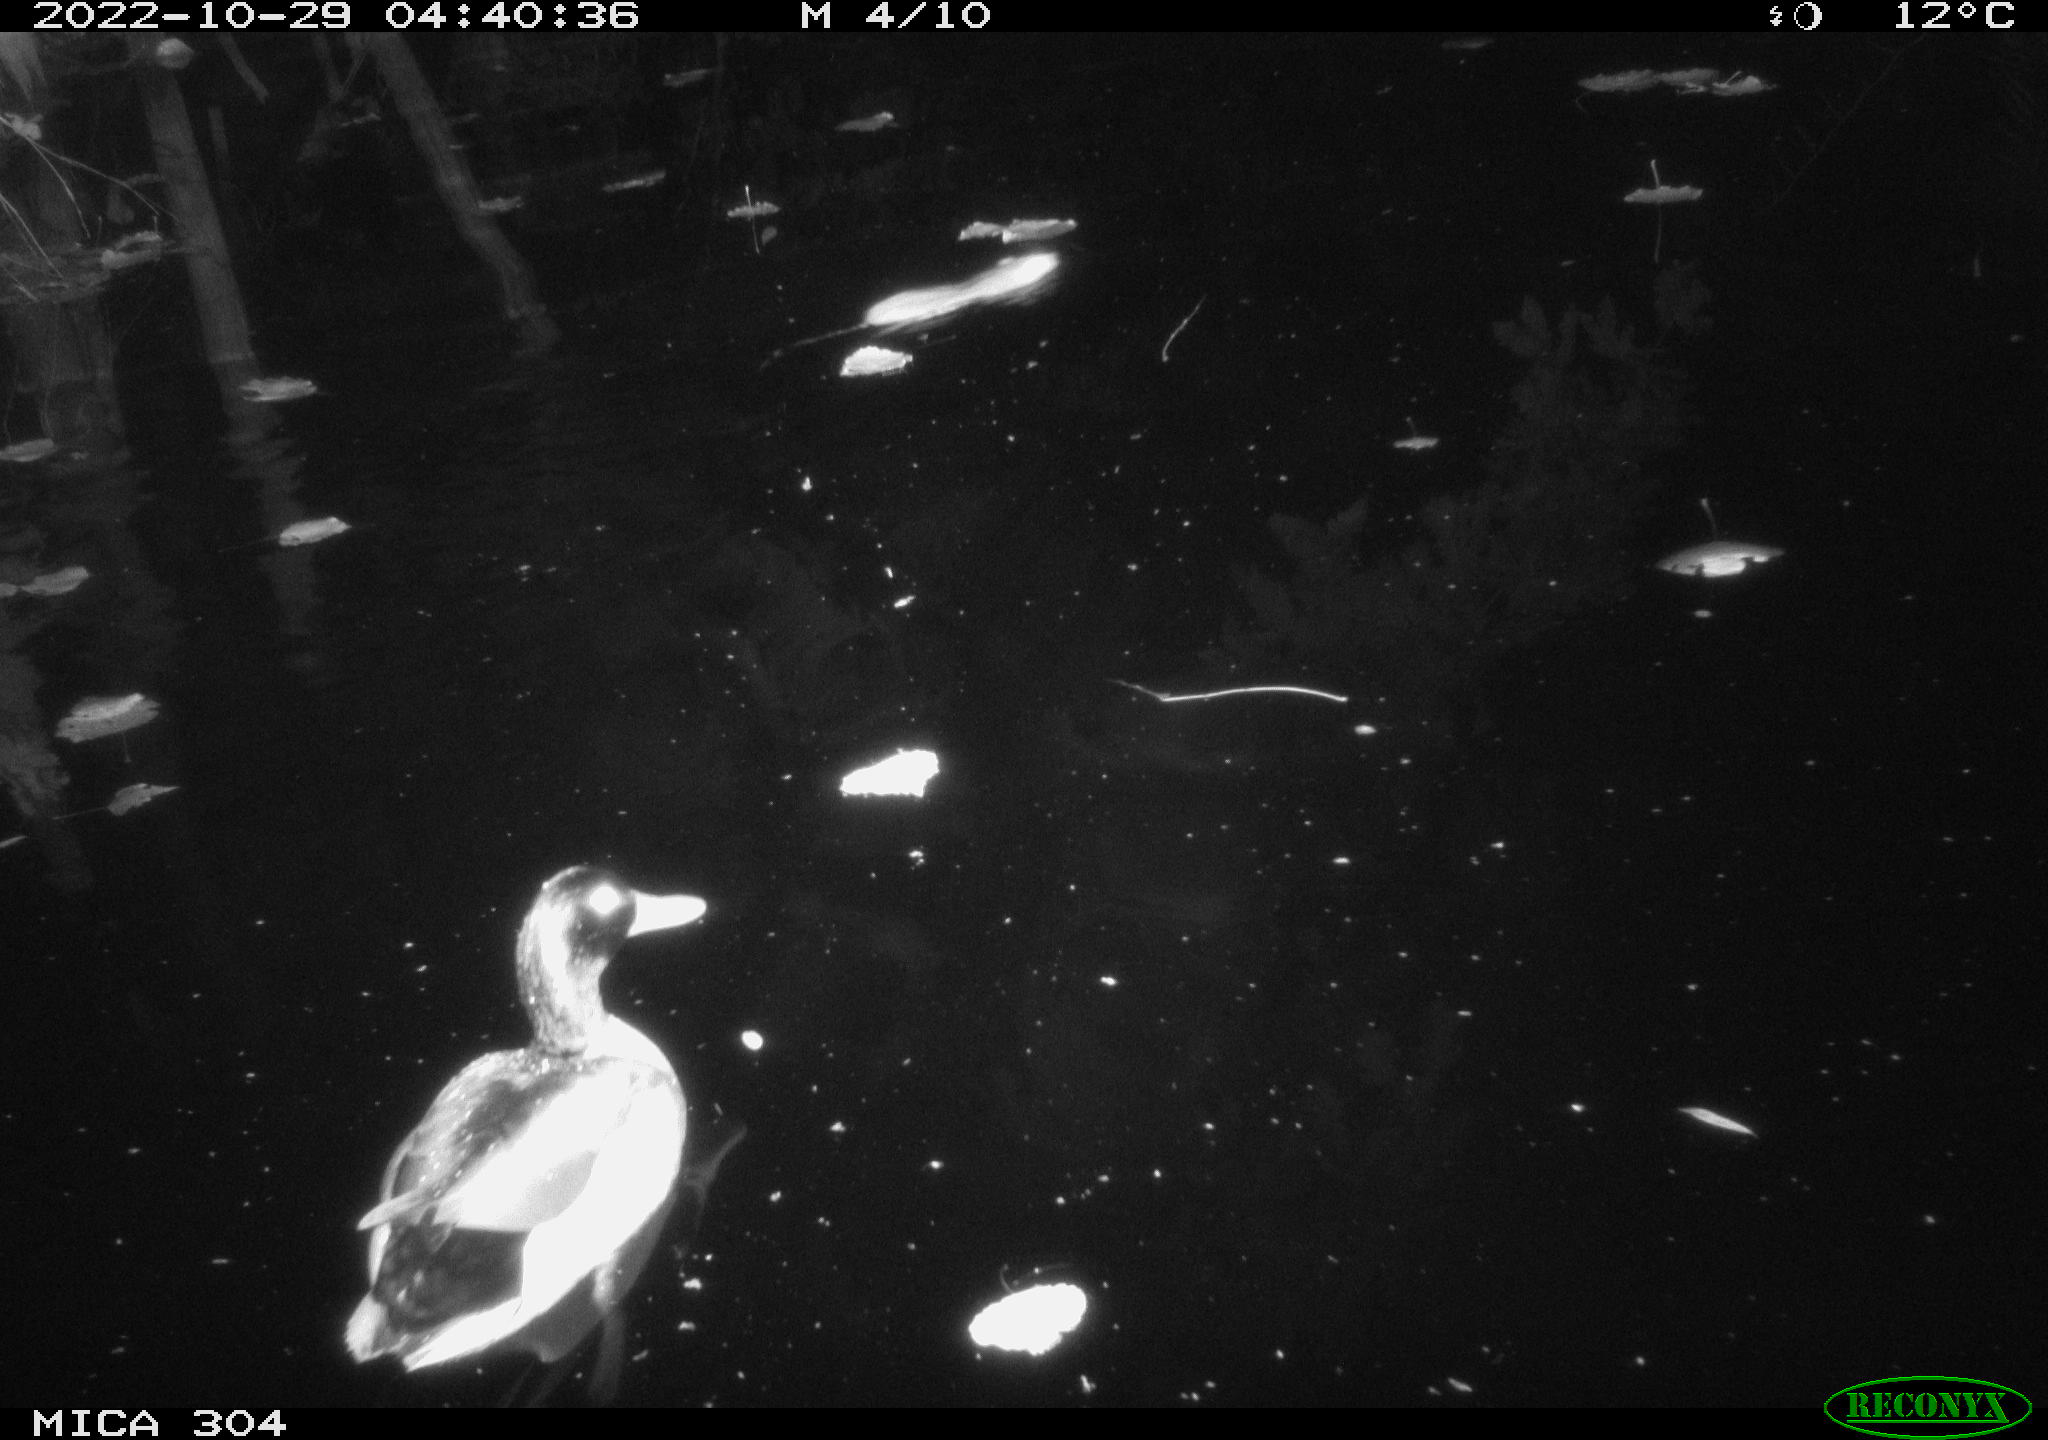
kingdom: Animalia
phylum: Chordata
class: Aves
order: Anseriformes
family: Anatidae
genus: Anas
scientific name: Anas
